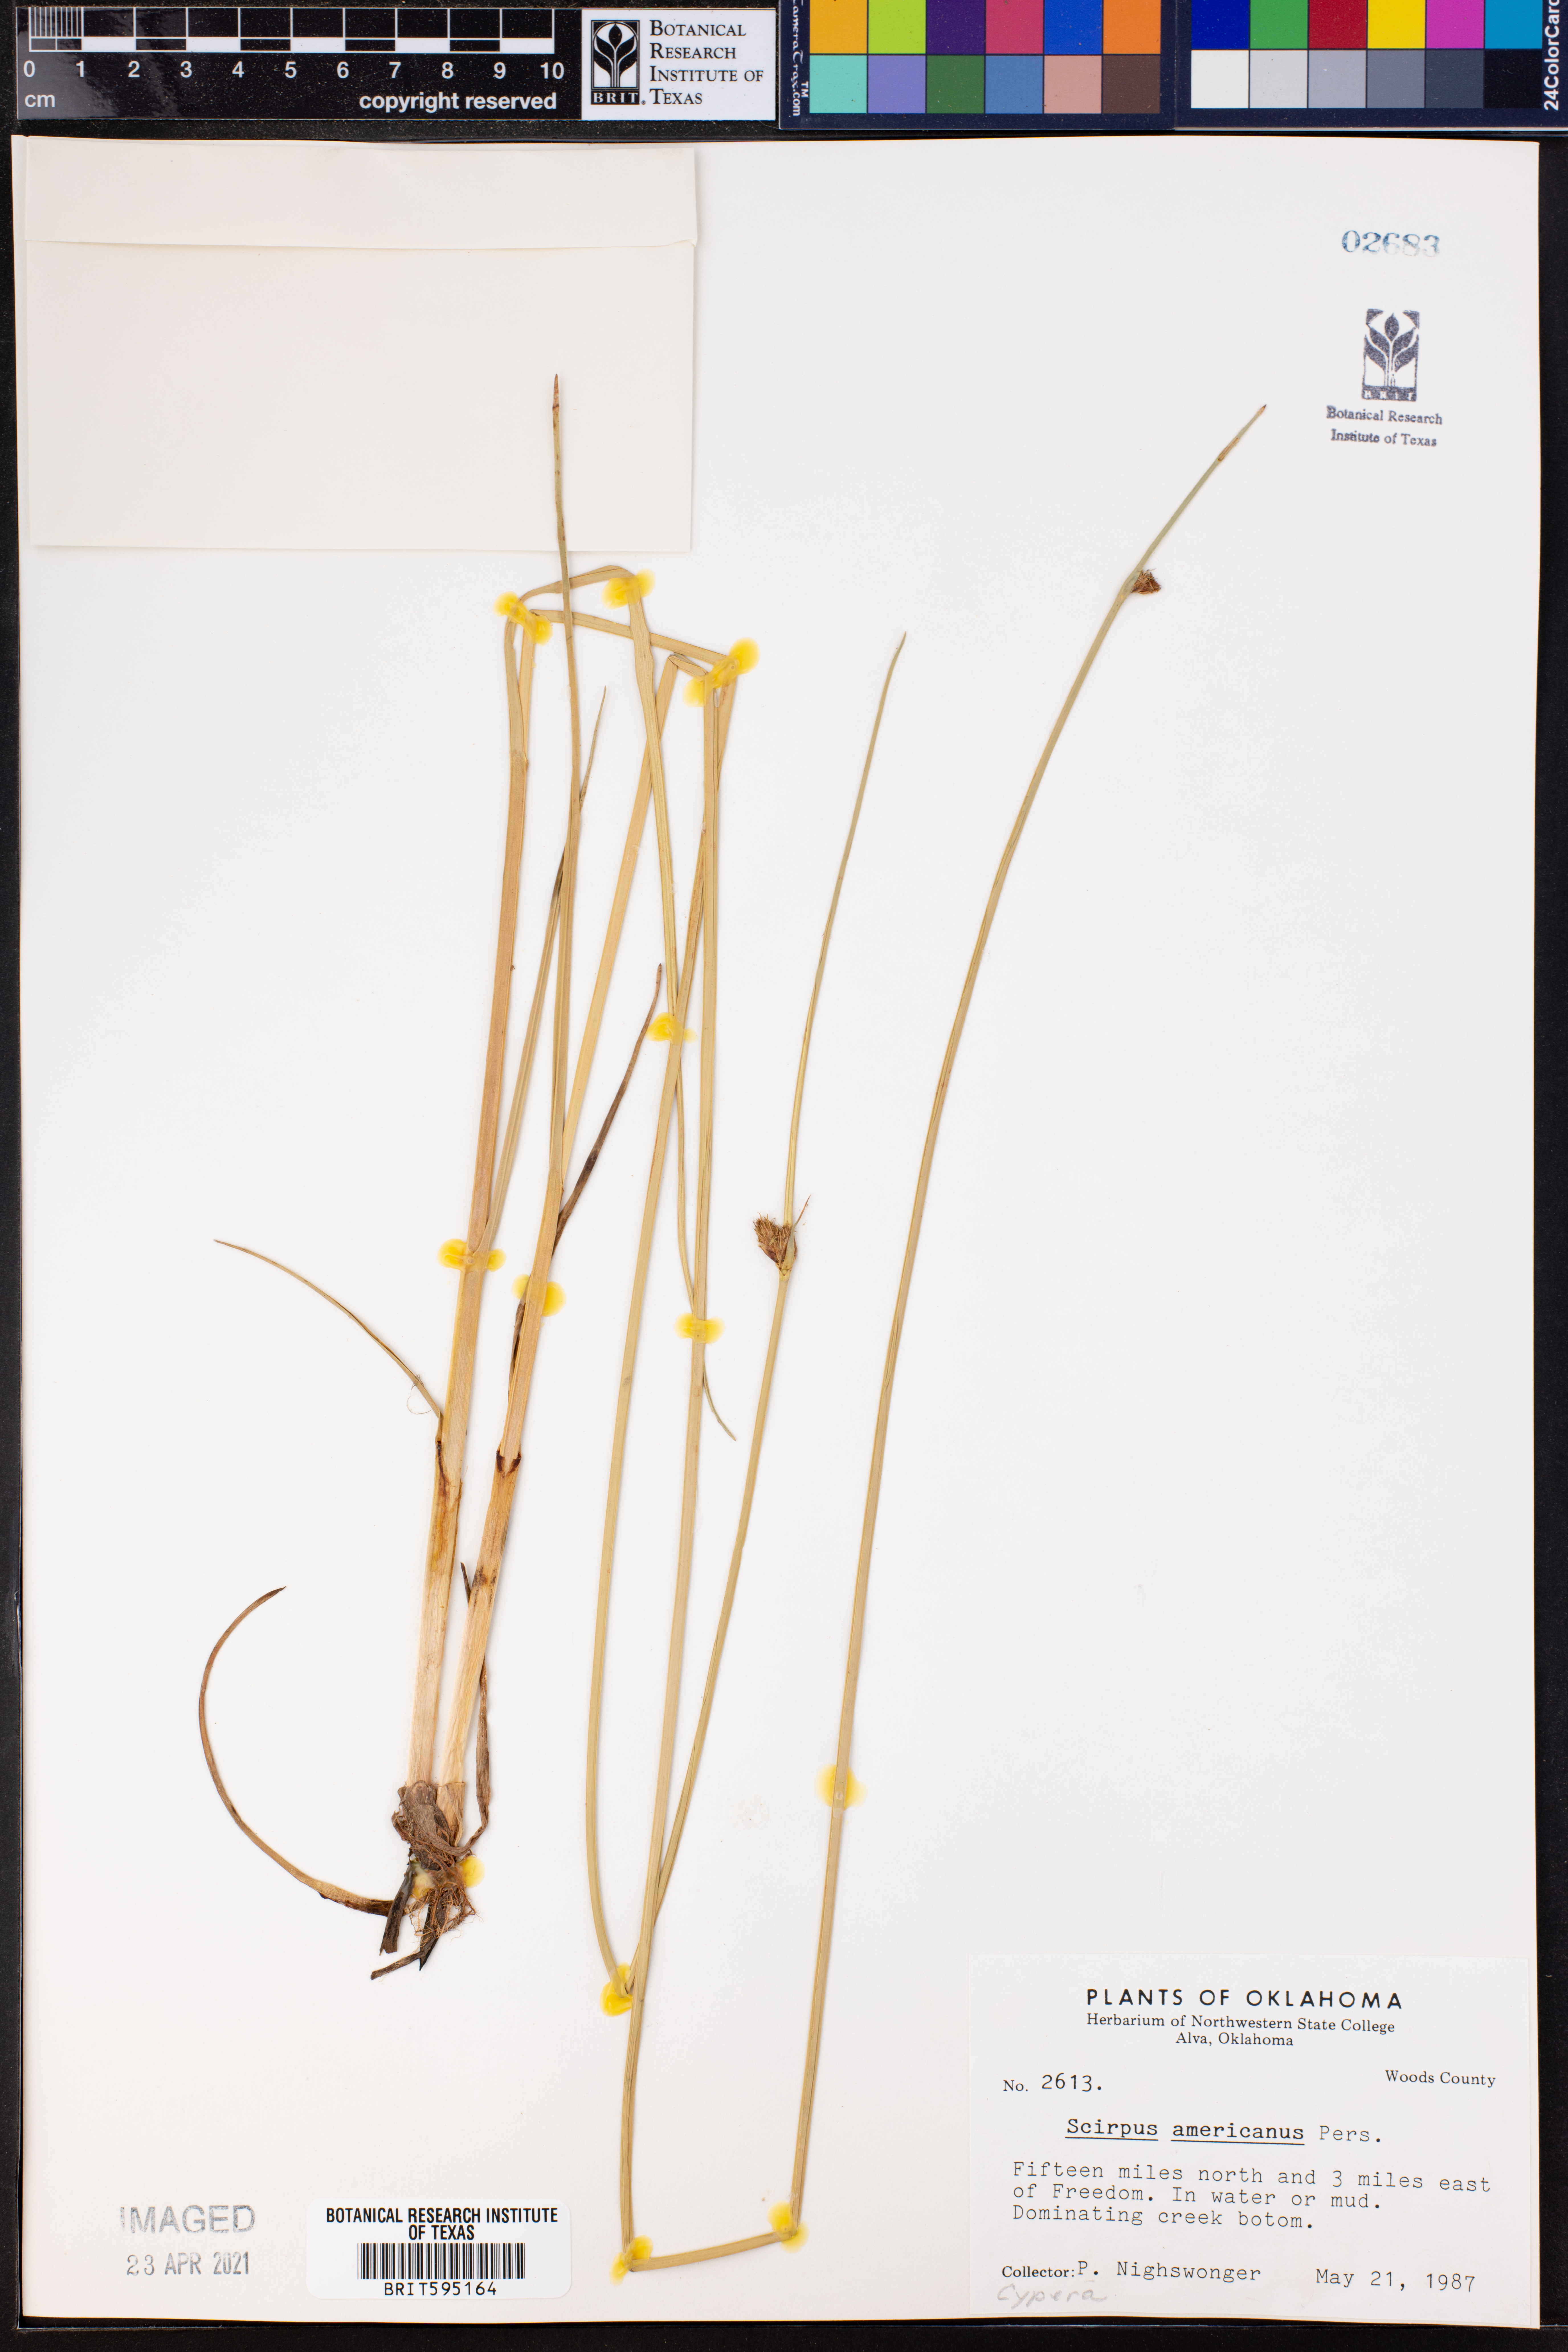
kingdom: Plantae
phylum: Tracheophyta
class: Liliopsida
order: Poales
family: Cyperaceae
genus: Schoenoplectus
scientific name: Schoenoplectus americanus
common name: American three-square bulrush
